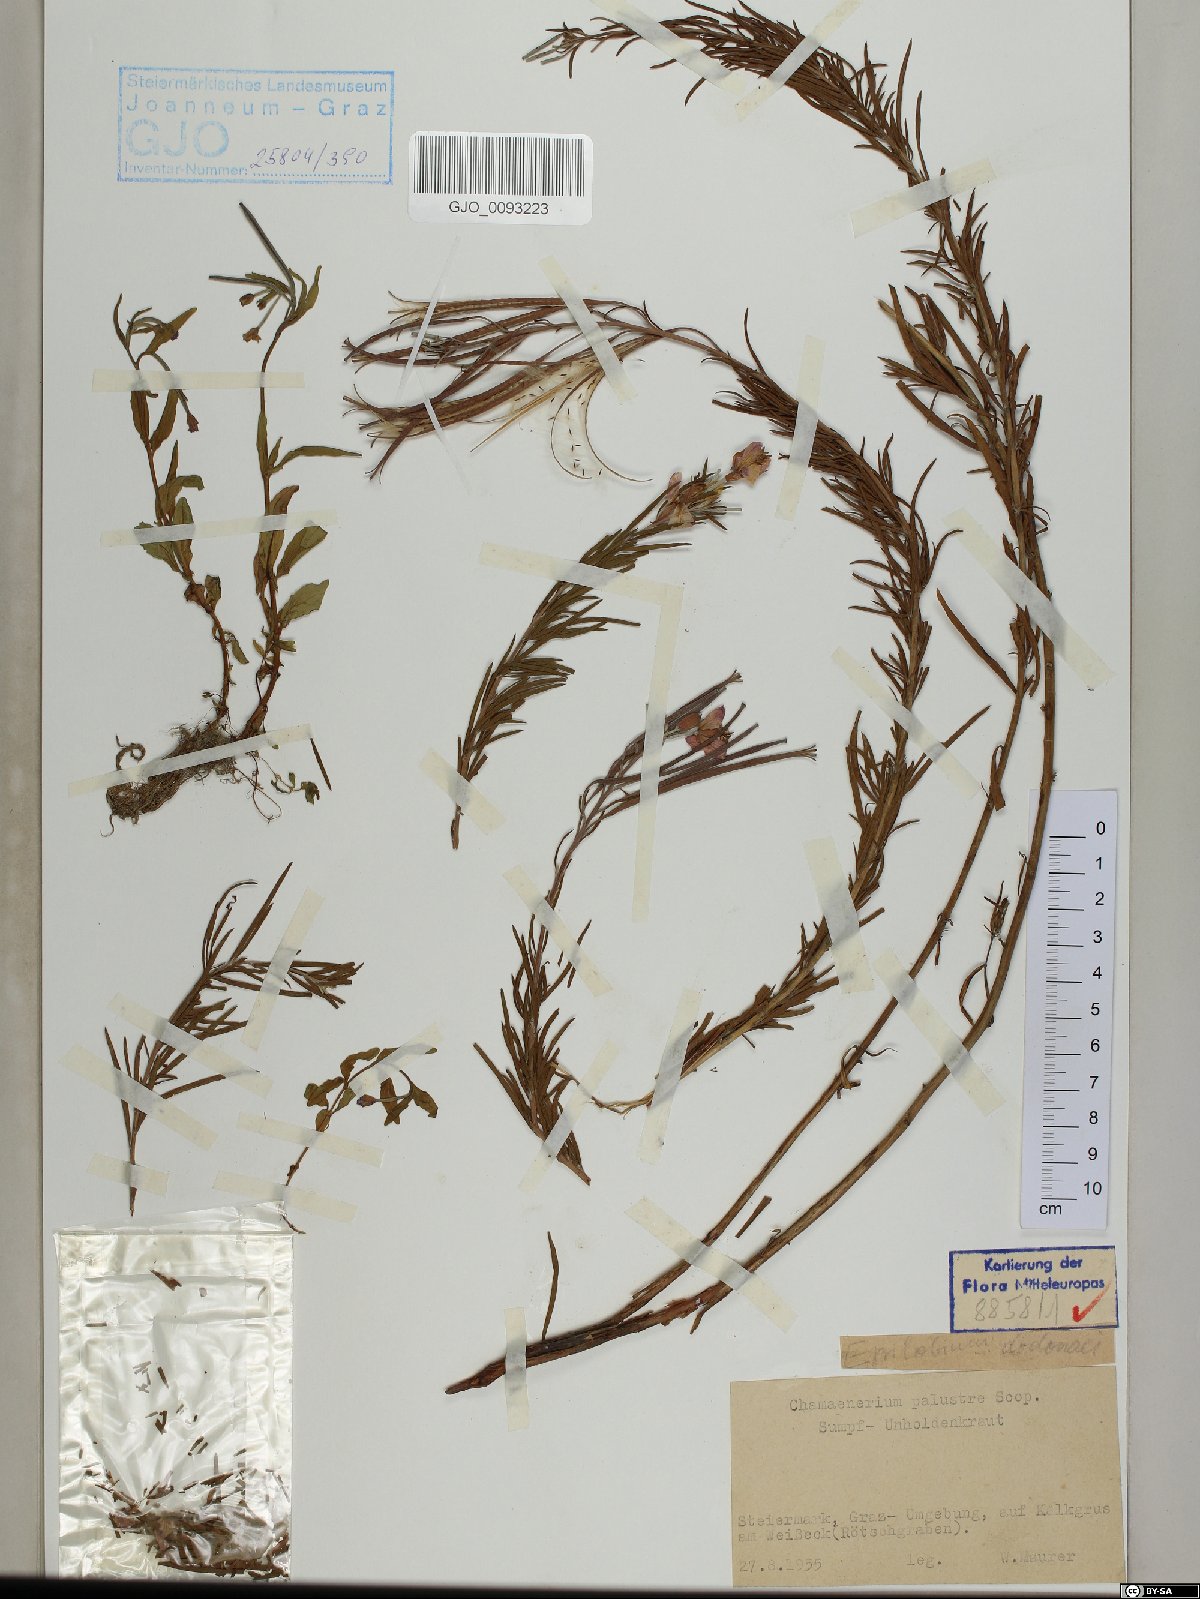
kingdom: Plantae
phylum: Tracheophyta
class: Magnoliopsida
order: Myrtales
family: Onagraceae
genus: Chamaenerion
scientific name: Chamaenerion dodonaei
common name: Rosemary-leaved willowherb
